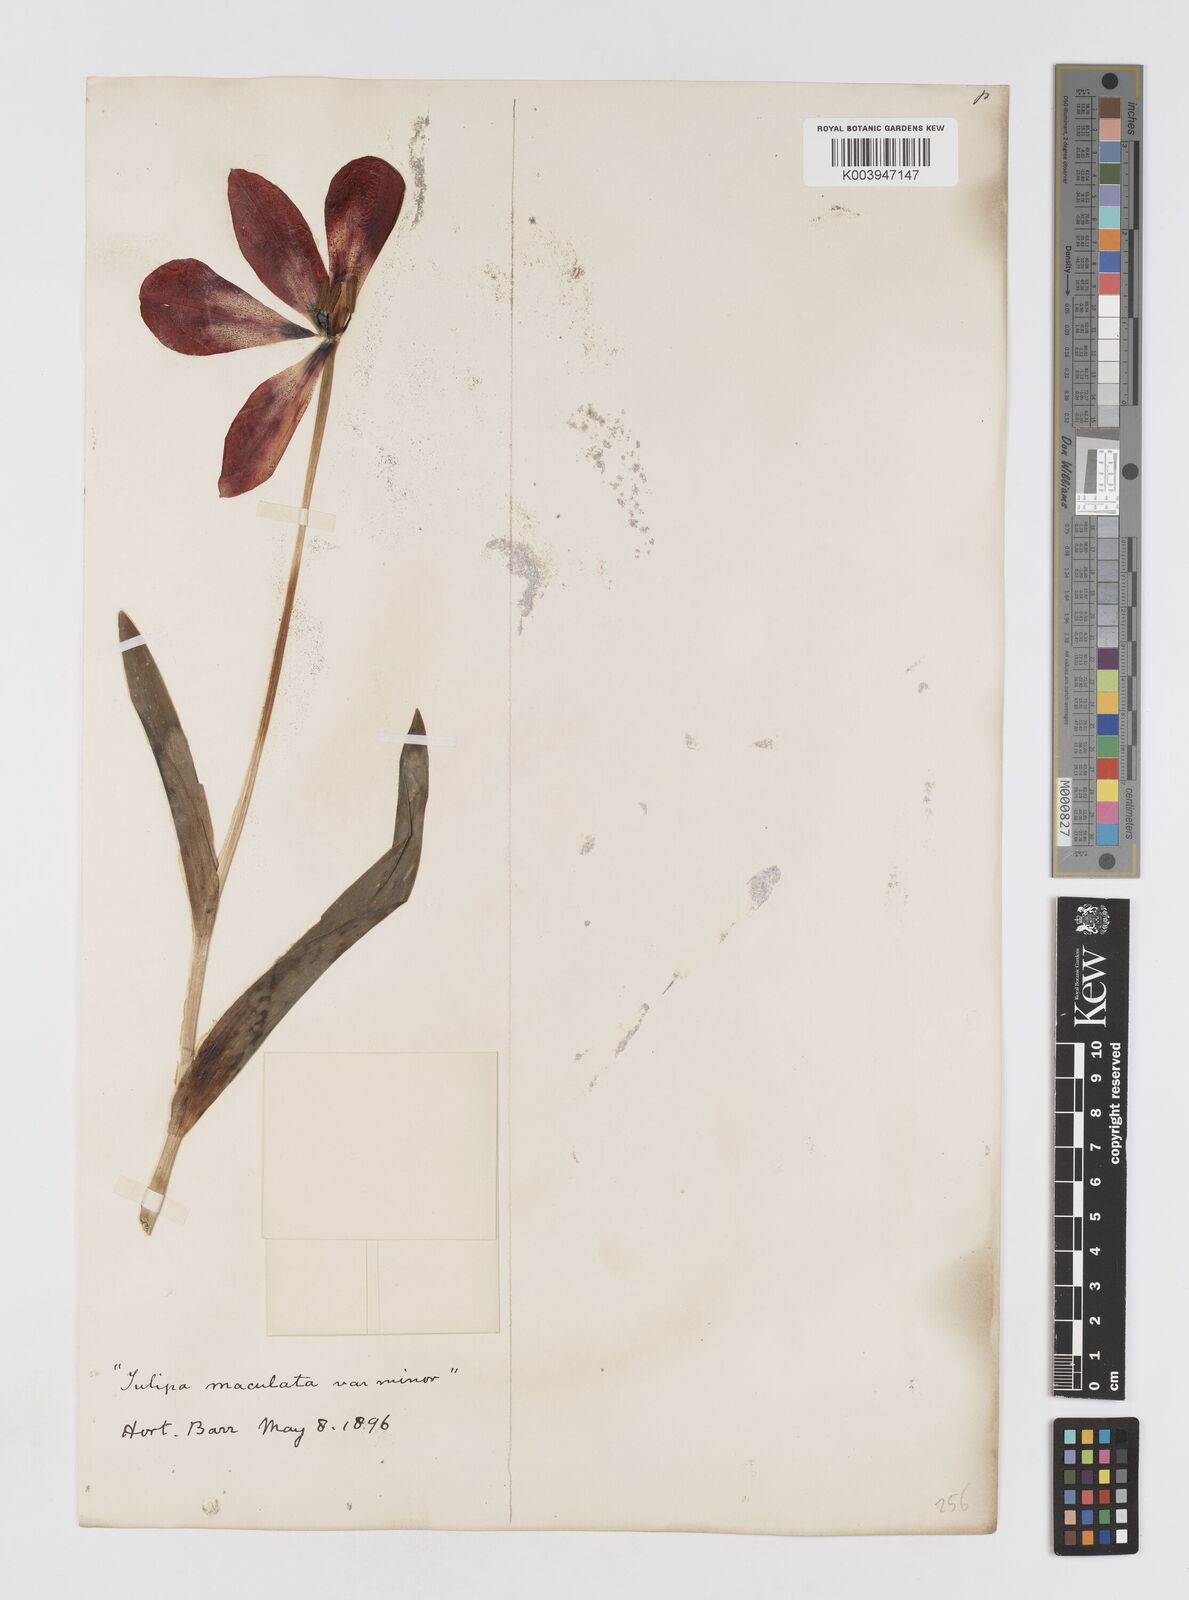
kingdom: Plantae
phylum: Tracheophyta
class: Liliopsida
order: Liliales
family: Liliaceae
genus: Tulipa
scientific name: Tulipa gesneriana
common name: Garden tulip
